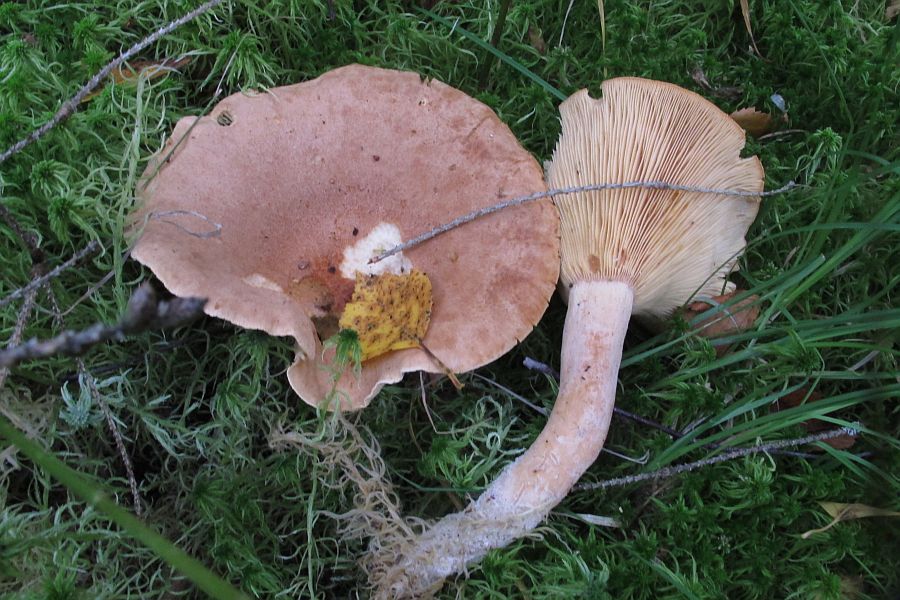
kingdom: Fungi
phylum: Basidiomycota
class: Agaricomycetes
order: Russulales
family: Russulaceae
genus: Lactarius
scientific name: Lactarius helvus
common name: mose-mælkehat
